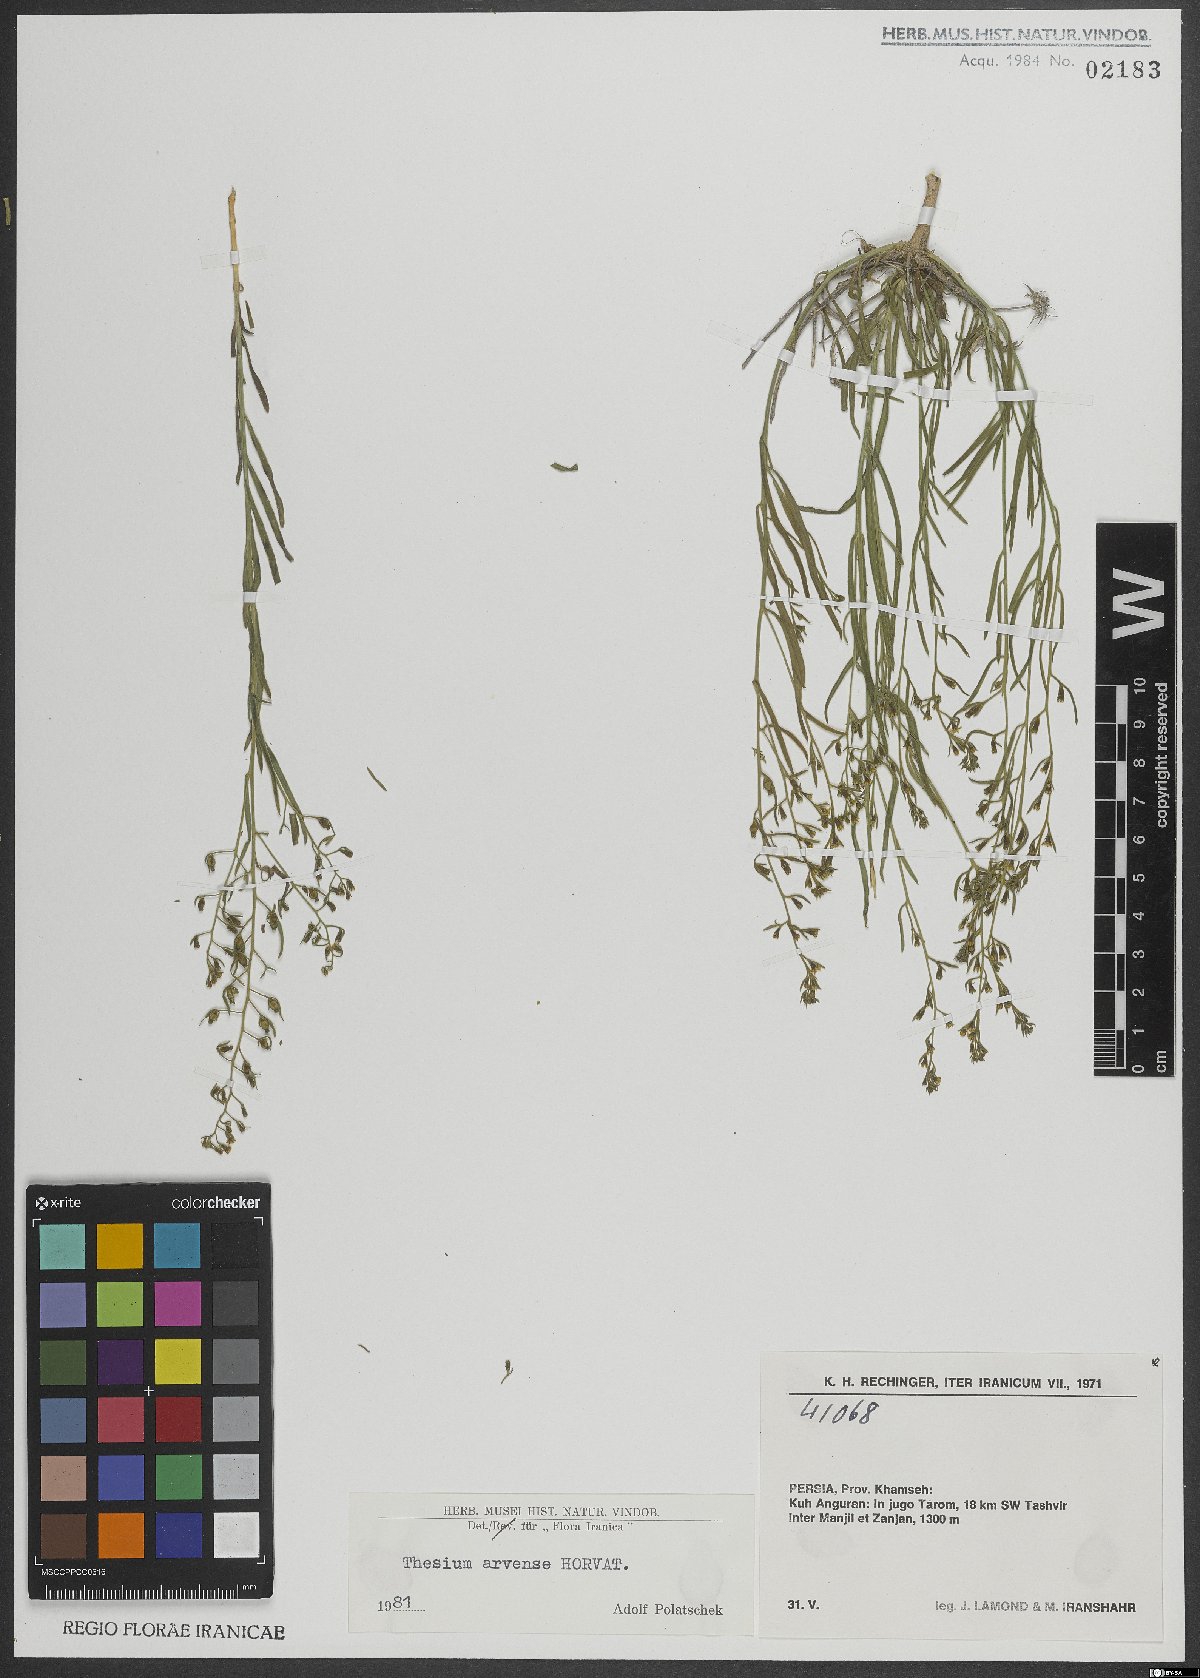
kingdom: Plantae
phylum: Tracheophyta
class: Magnoliopsida
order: Santalales
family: Thesiaceae
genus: Thesium
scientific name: Thesium
